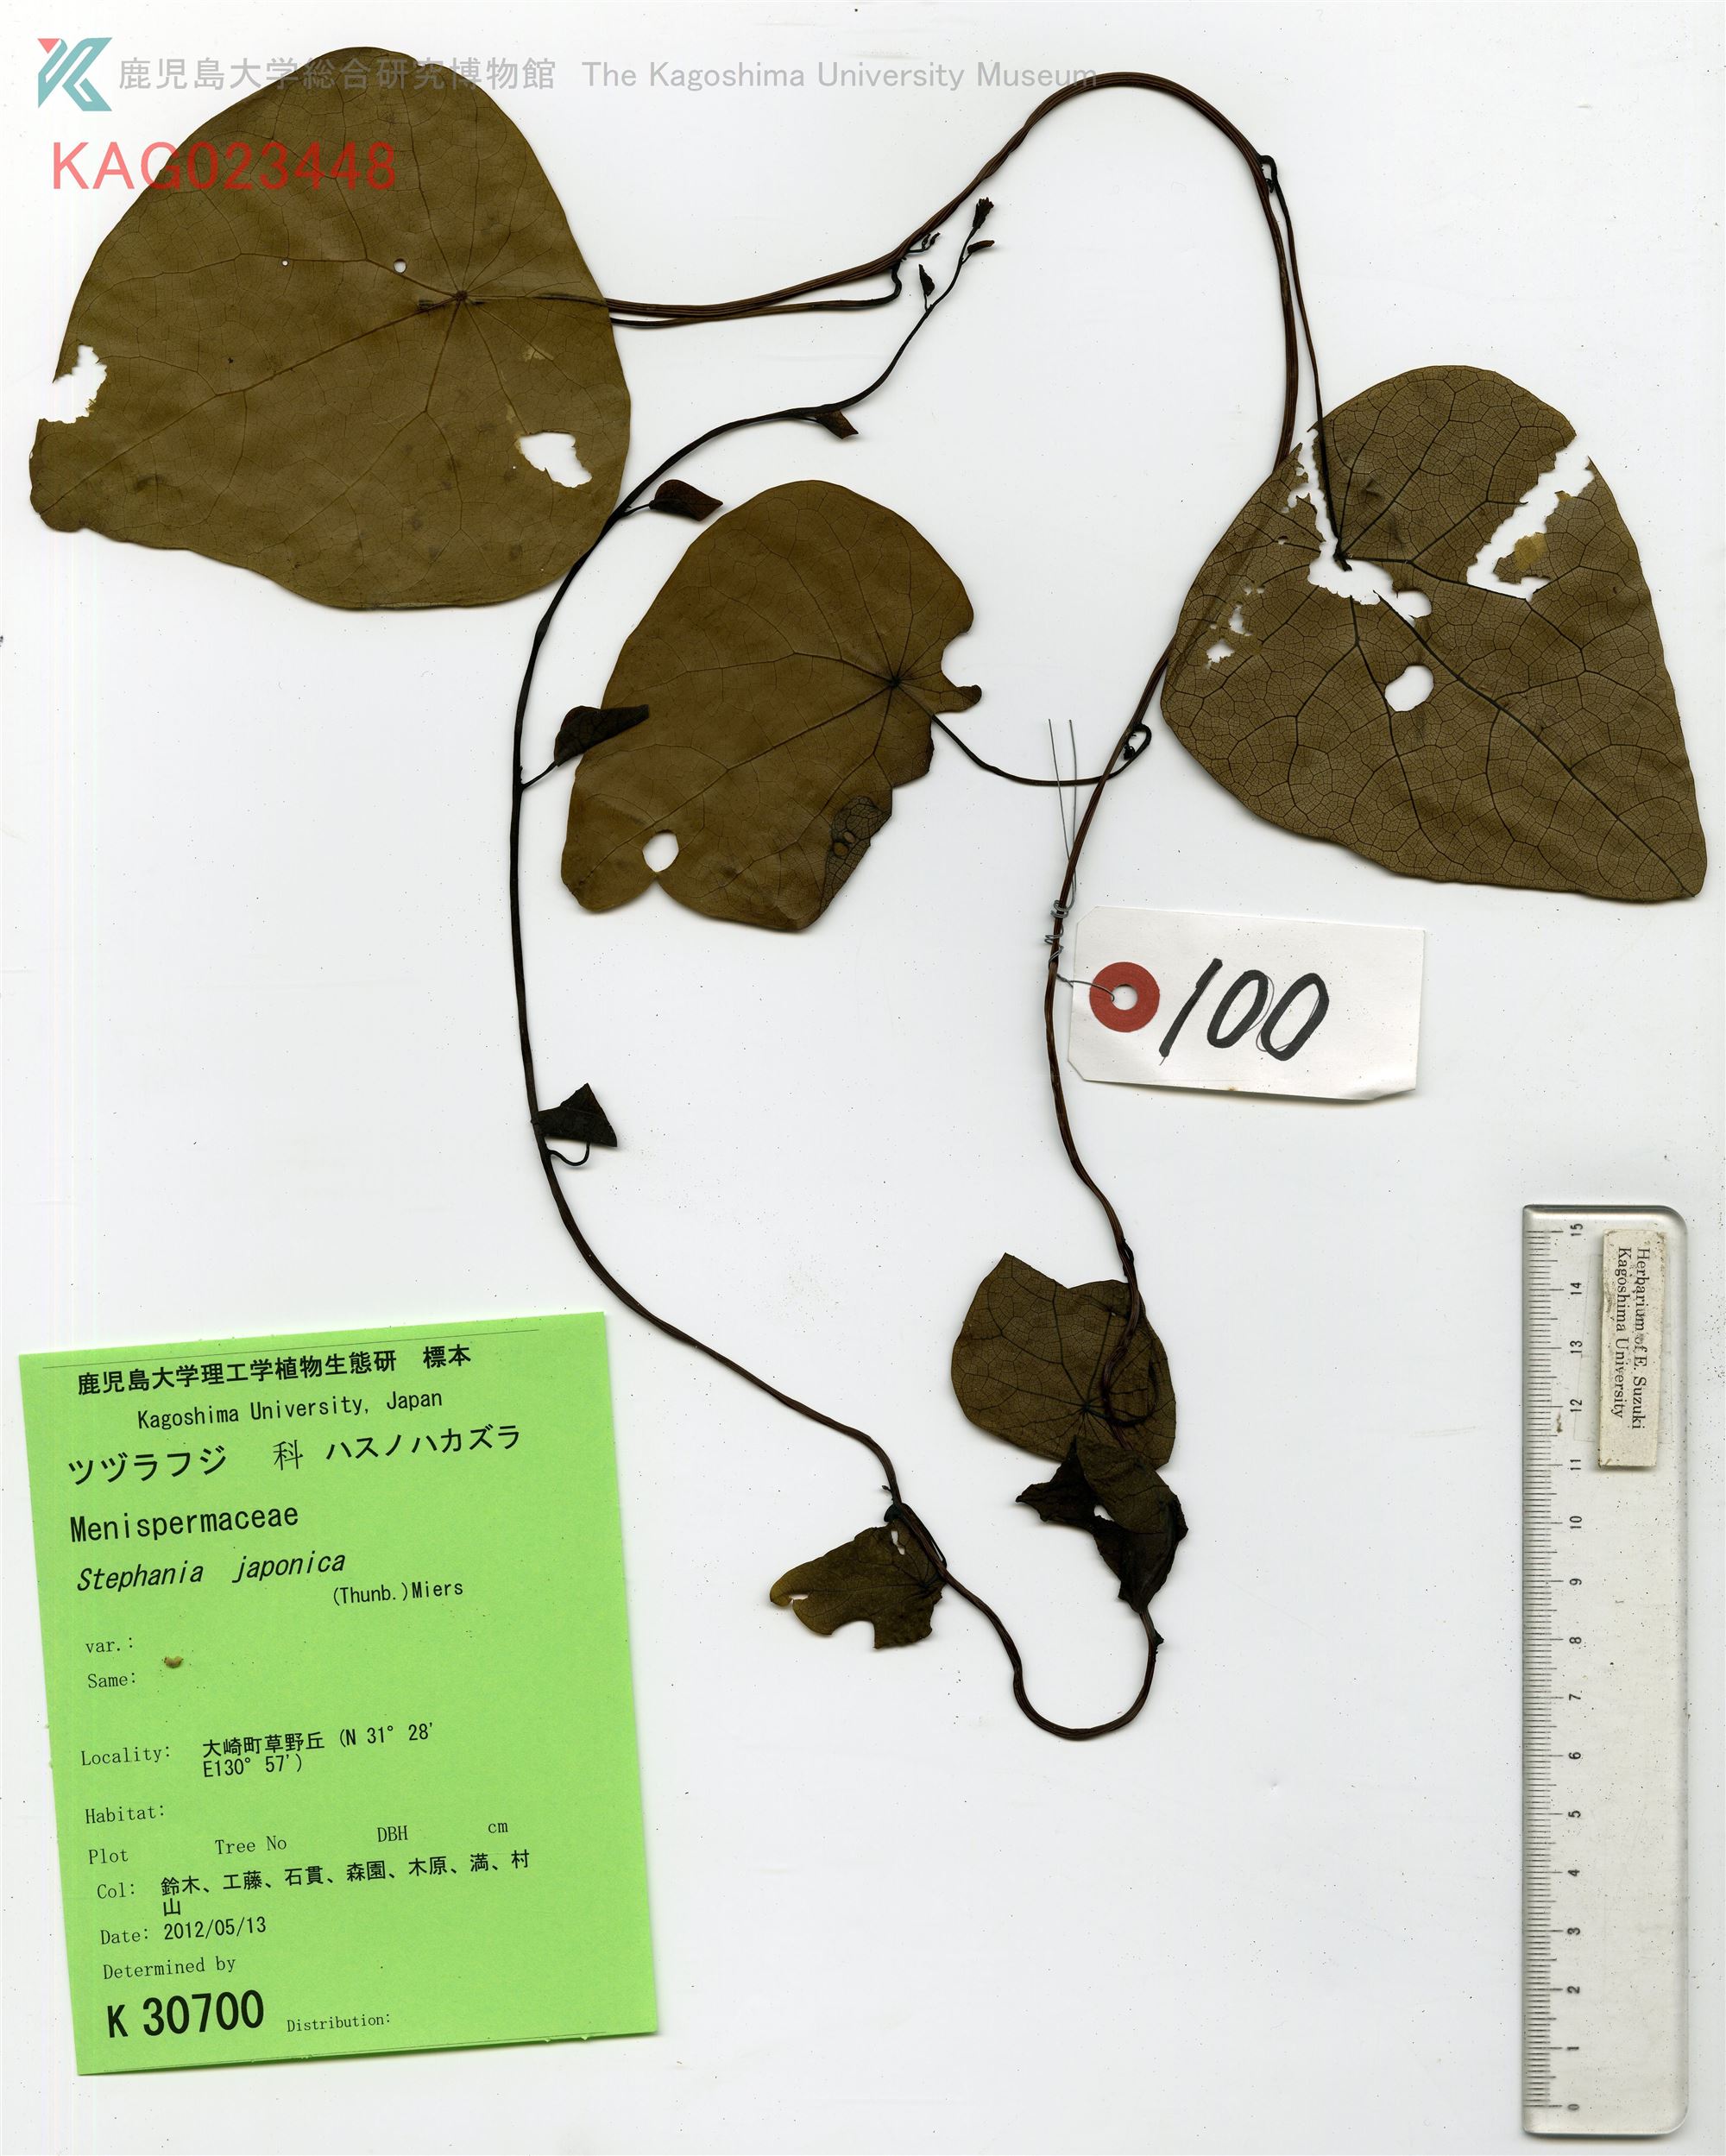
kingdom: Plantae
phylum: Tracheophyta
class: Magnoliopsida
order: Ranunculales
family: Menispermaceae
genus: Stephania
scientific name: Stephania japonica
